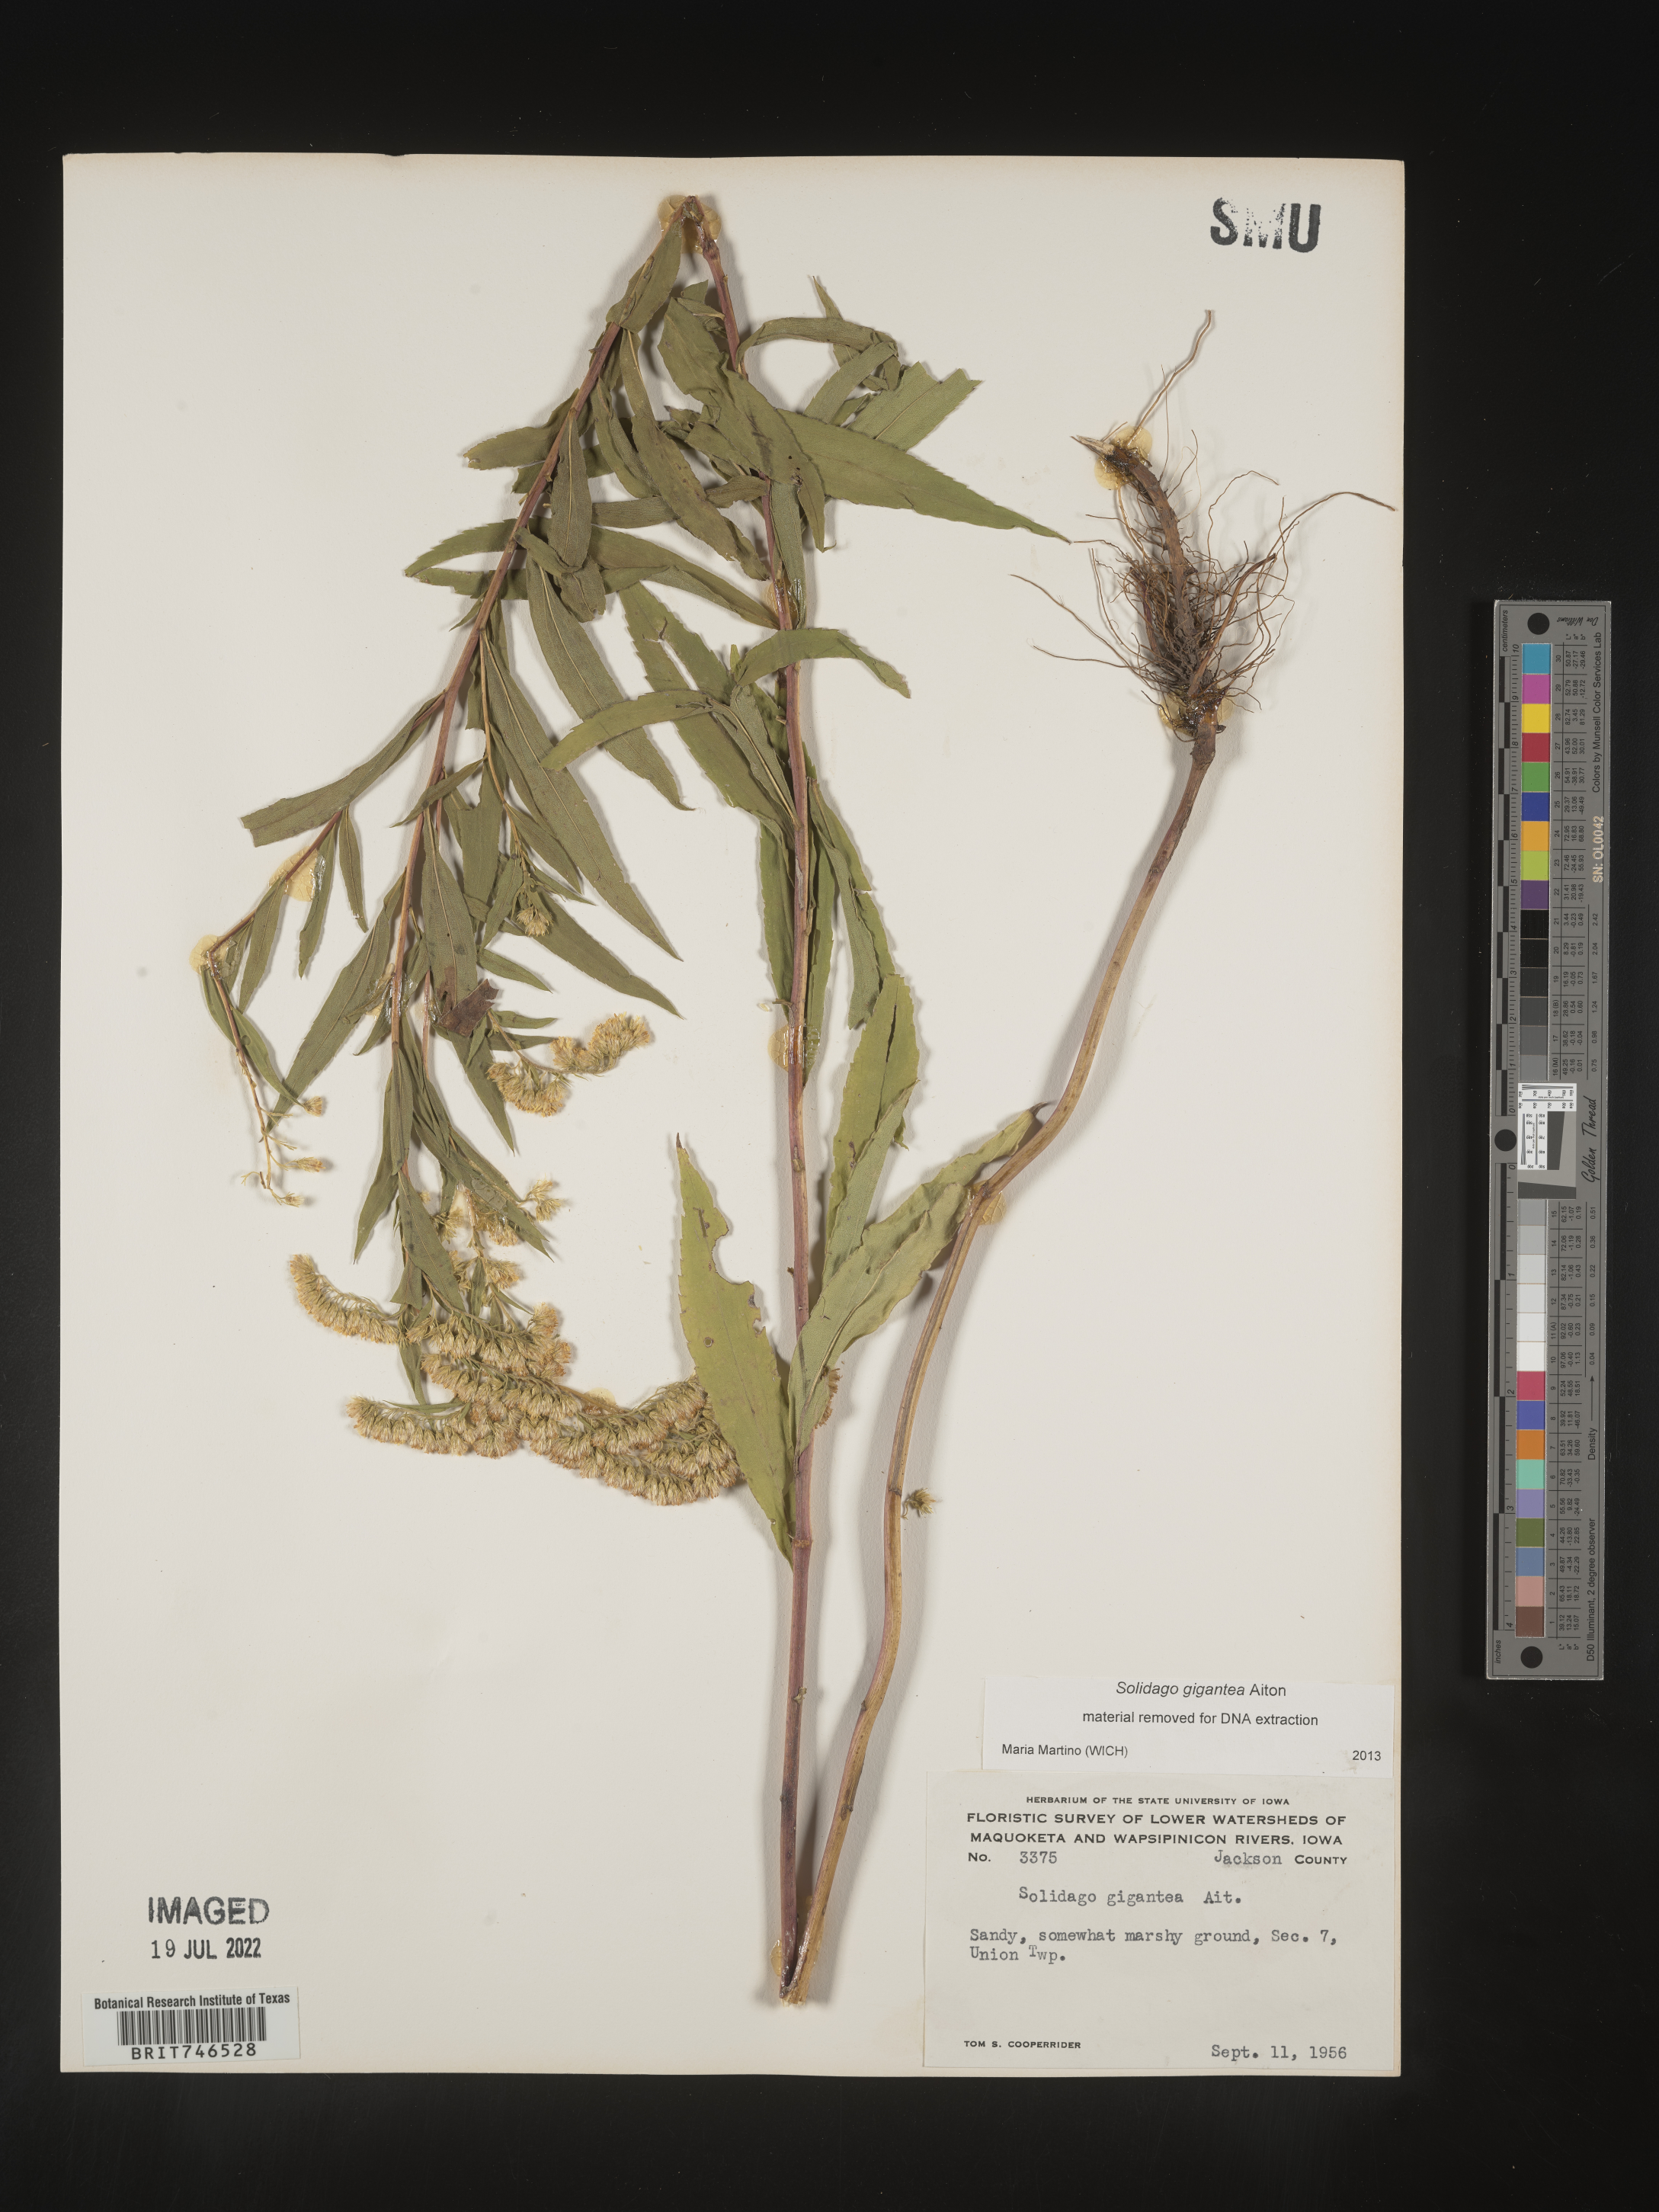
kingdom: Plantae
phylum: Tracheophyta
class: Magnoliopsida
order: Asterales
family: Asteraceae
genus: Solidago
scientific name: Solidago gigantea
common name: Giant goldenrod
